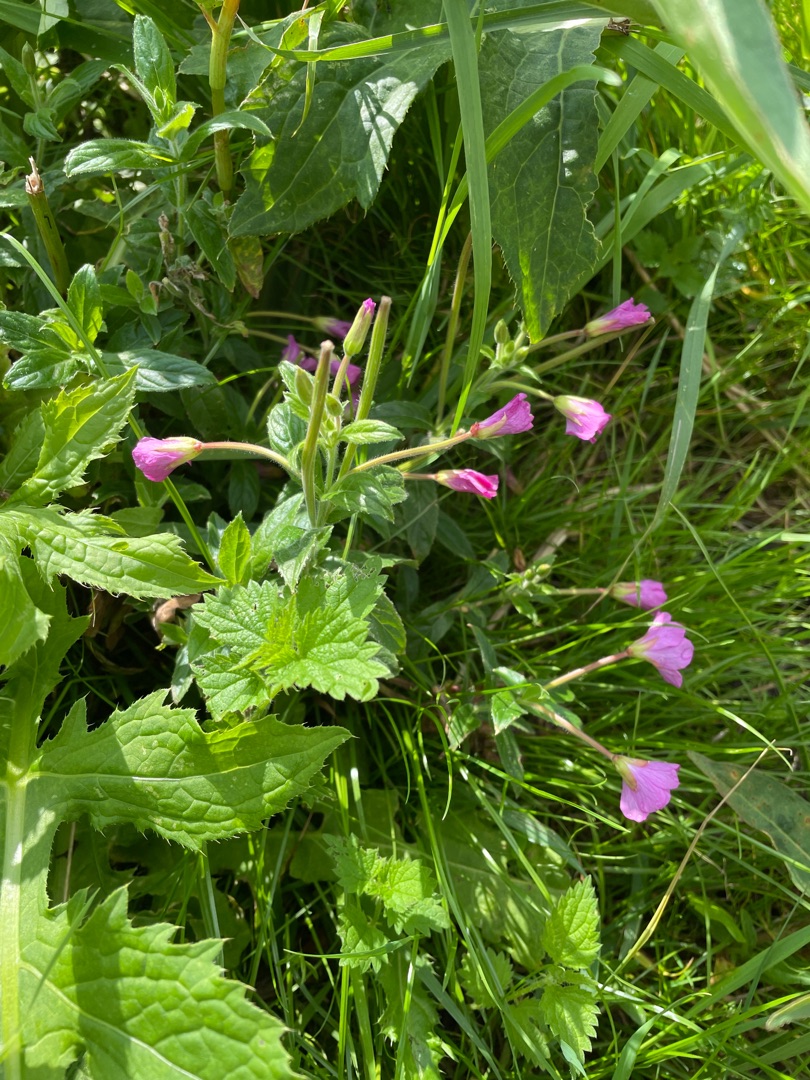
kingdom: Plantae
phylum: Tracheophyta
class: Magnoliopsida
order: Myrtales
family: Onagraceae
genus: Epilobium
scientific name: Epilobium hirsutum
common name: Lådden dueurt
